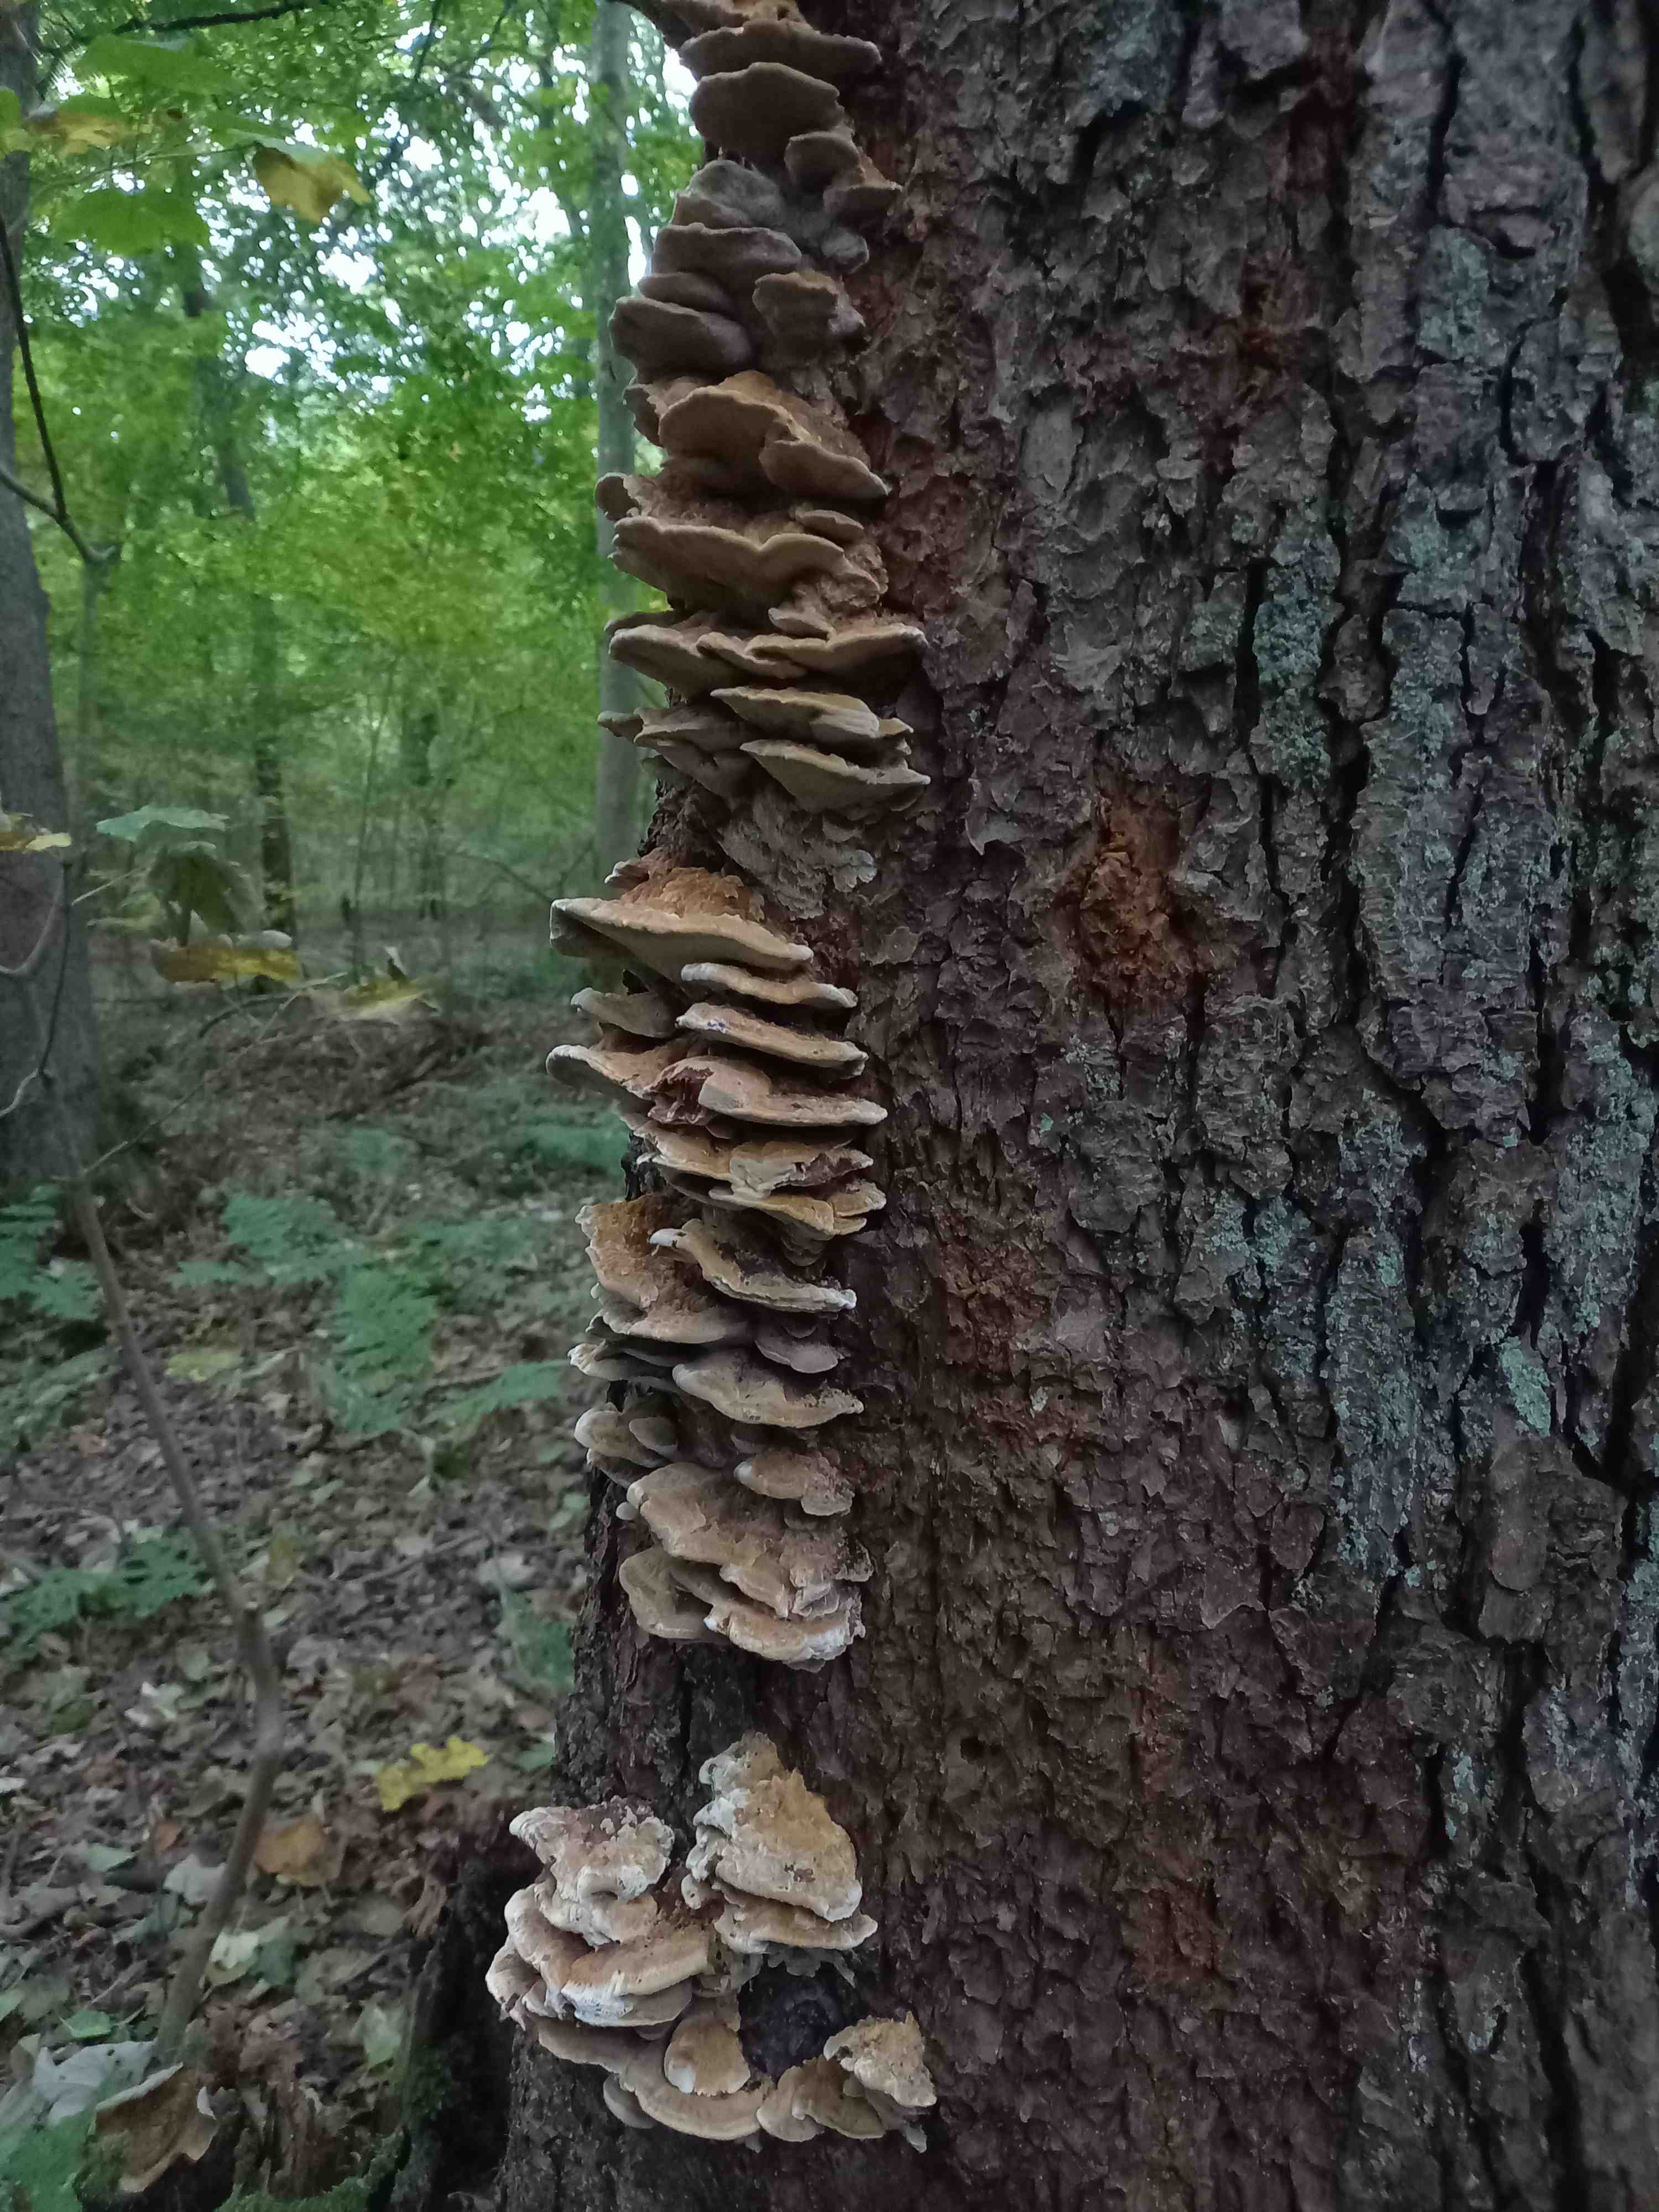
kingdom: Fungi
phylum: Basidiomycota
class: Agaricomycetes
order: Hymenochaetales
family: Hymenochaetaceae
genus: Xanthoporia
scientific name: Xanthoporia radiata
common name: elle-spejlporesvamp
